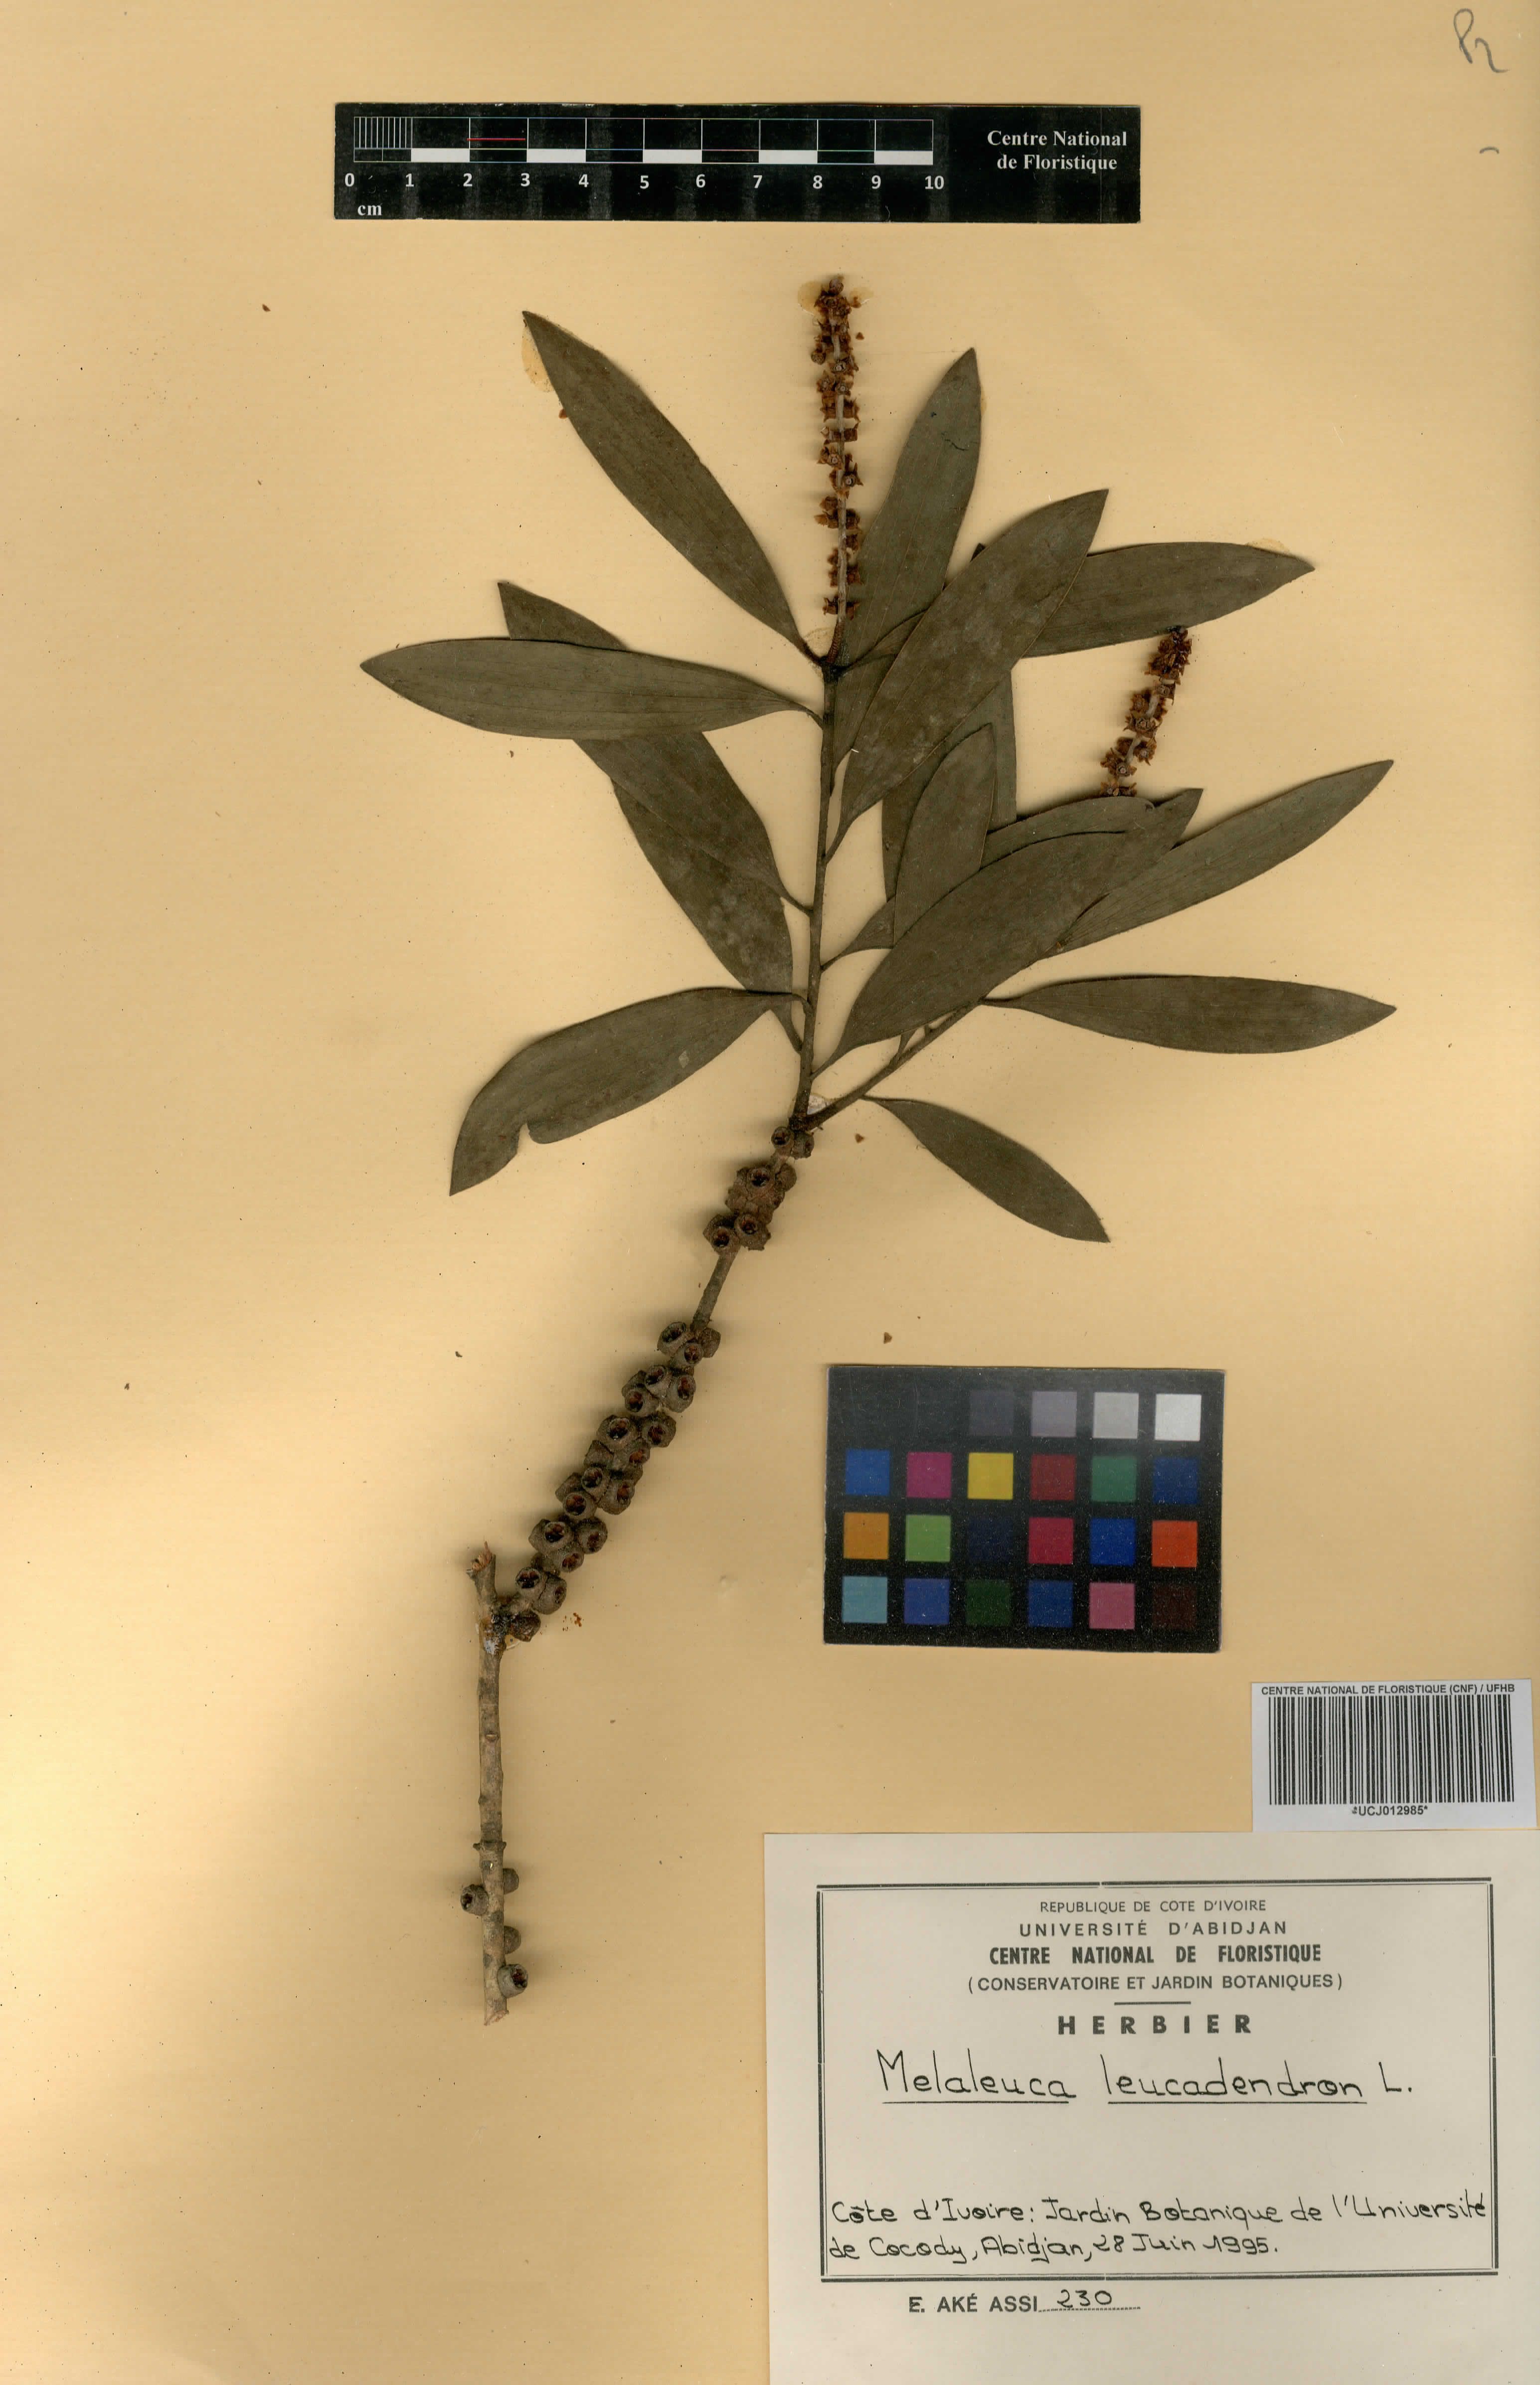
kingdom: Plantae
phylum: Tracheophyta
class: Magnoliopsida
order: Myrtales
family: Myrtaceae
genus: Melaleuca
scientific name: Melaleuca leucadendra
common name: Weeping paperbark
